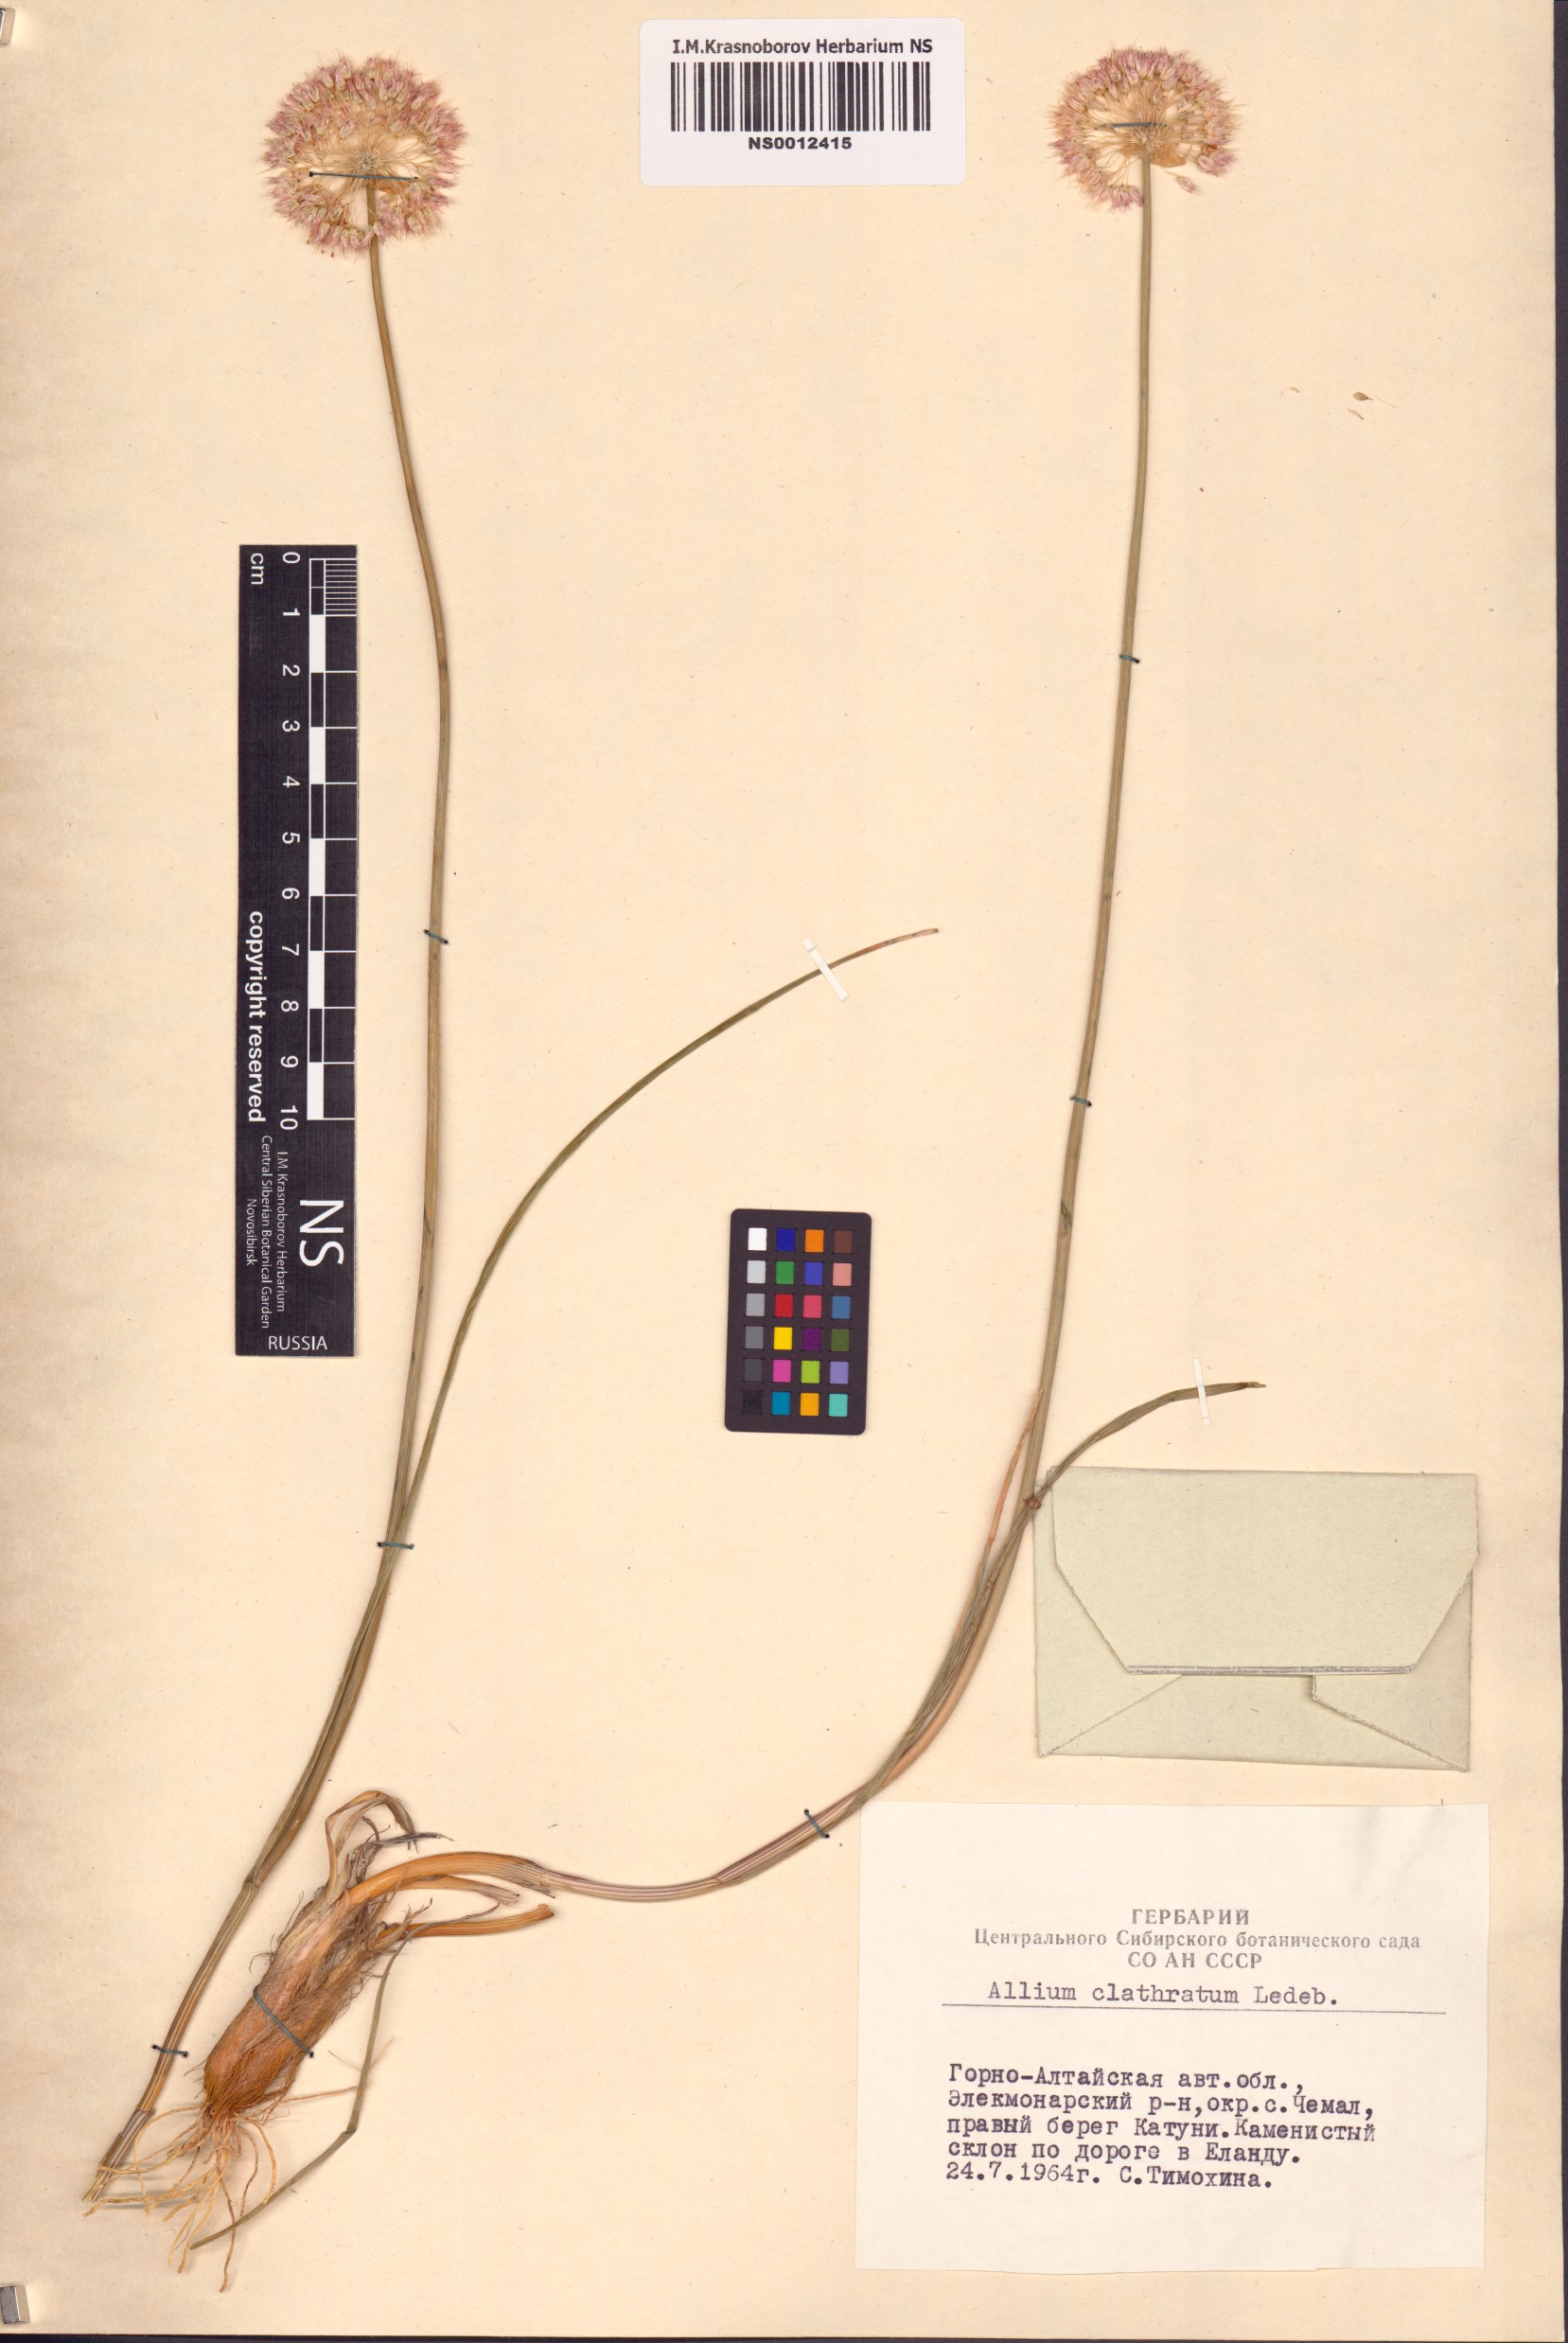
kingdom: Plantae
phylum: Tracheophyta
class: Liliopsida
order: Asparagales
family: Amaryllidaceae
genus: Allium
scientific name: Allium clathratum
